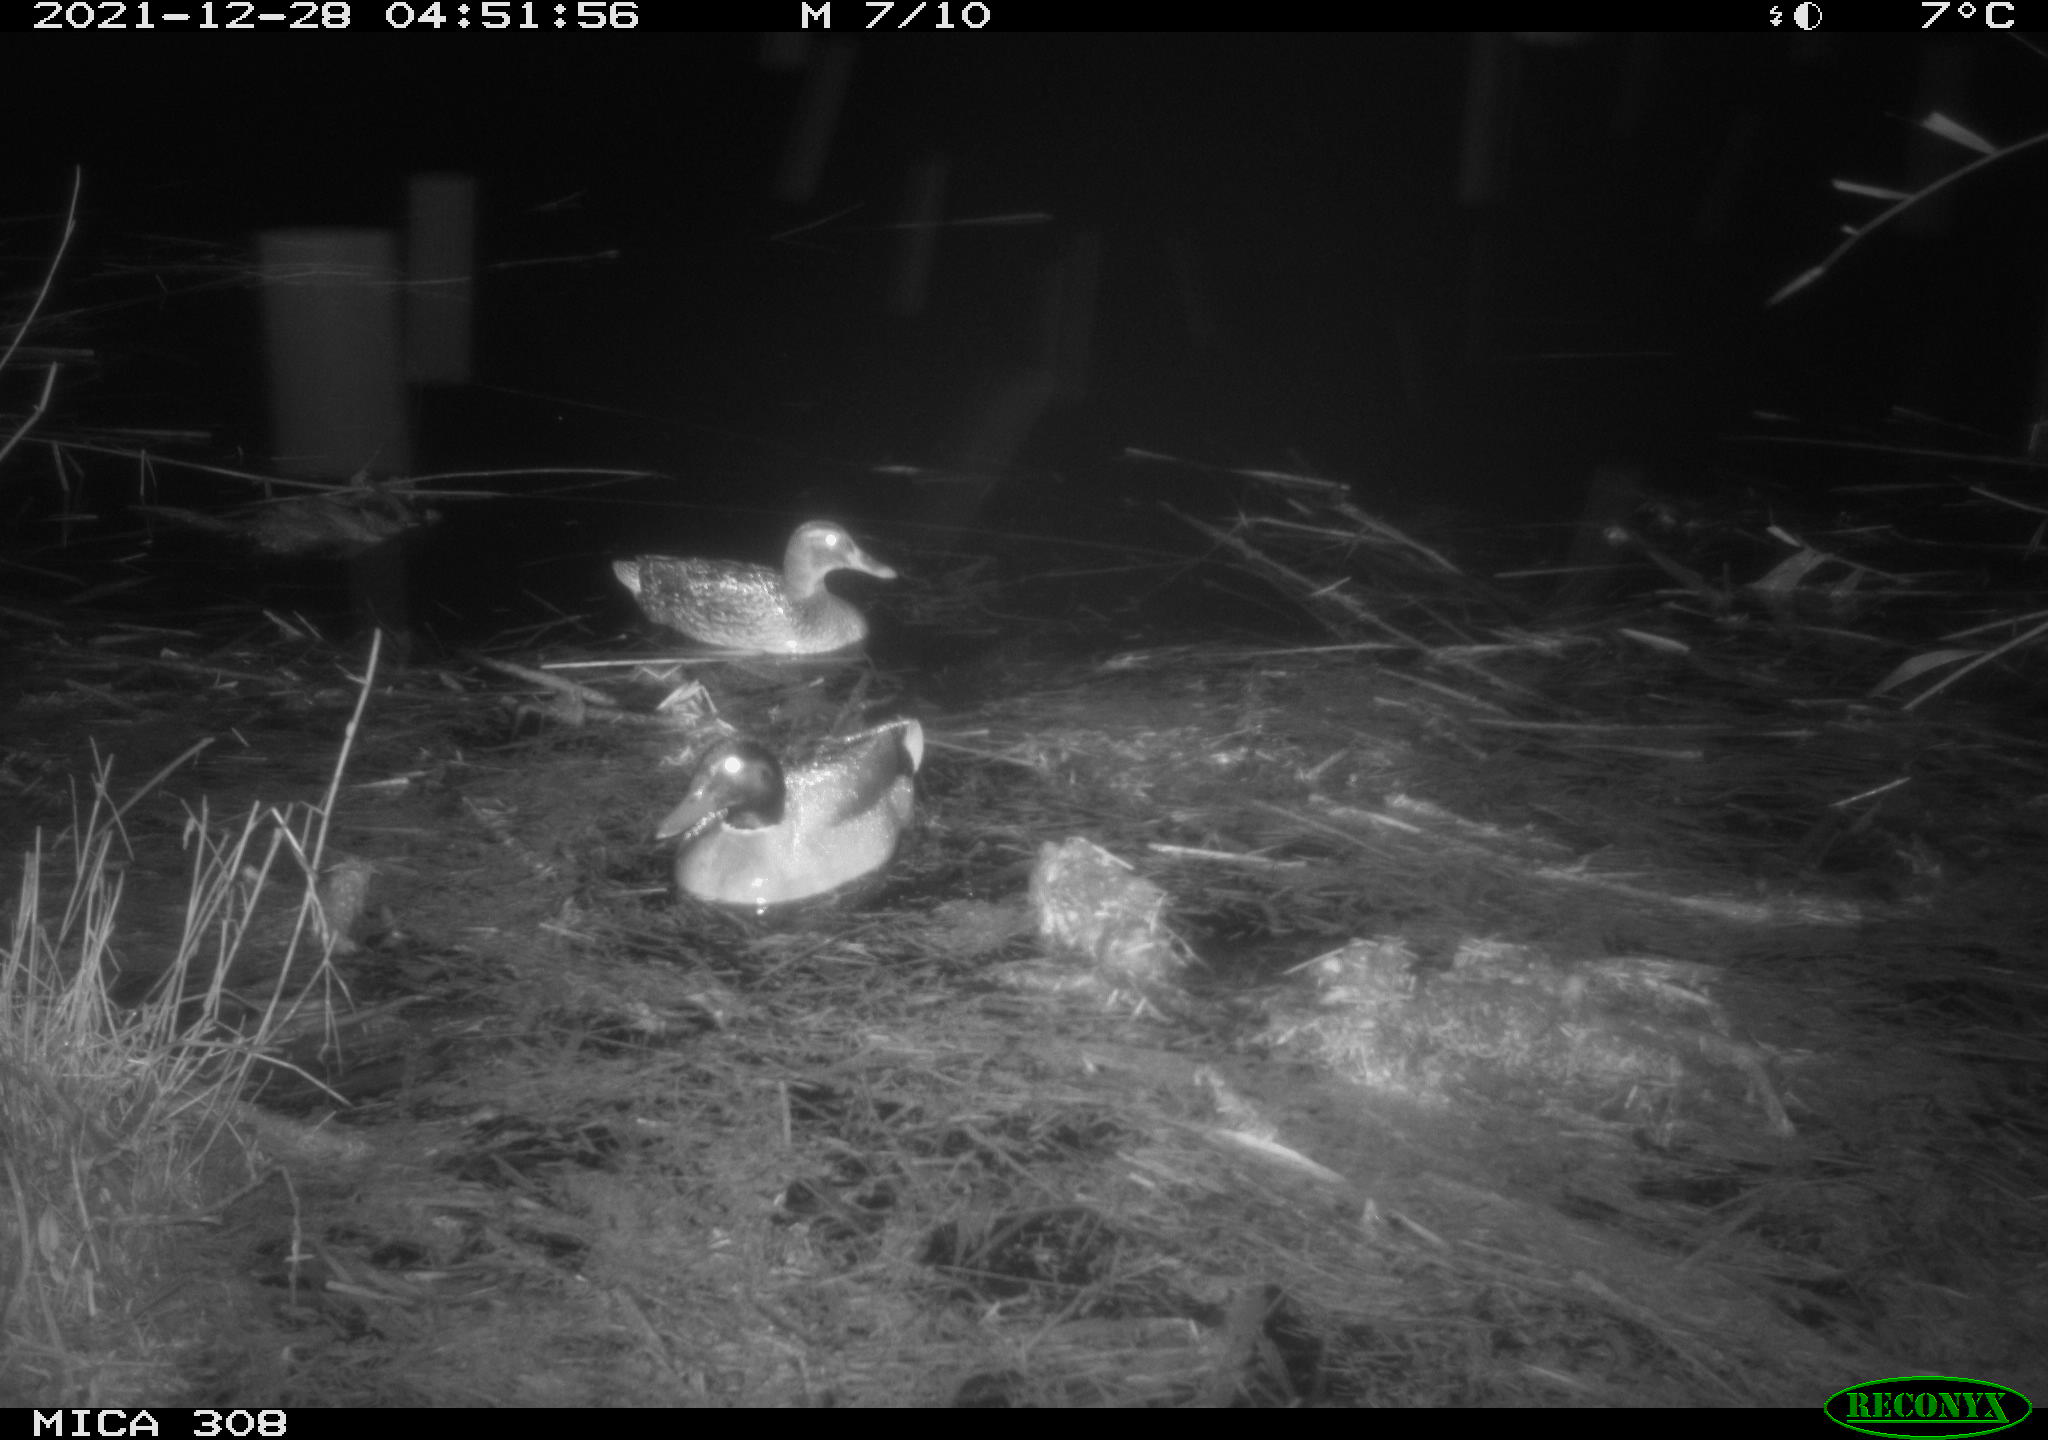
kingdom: Animalia
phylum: Chordata
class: Aves
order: Anseriformes
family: Anatidae
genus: Anas
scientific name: Anas platyrhynchos
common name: Mallard
